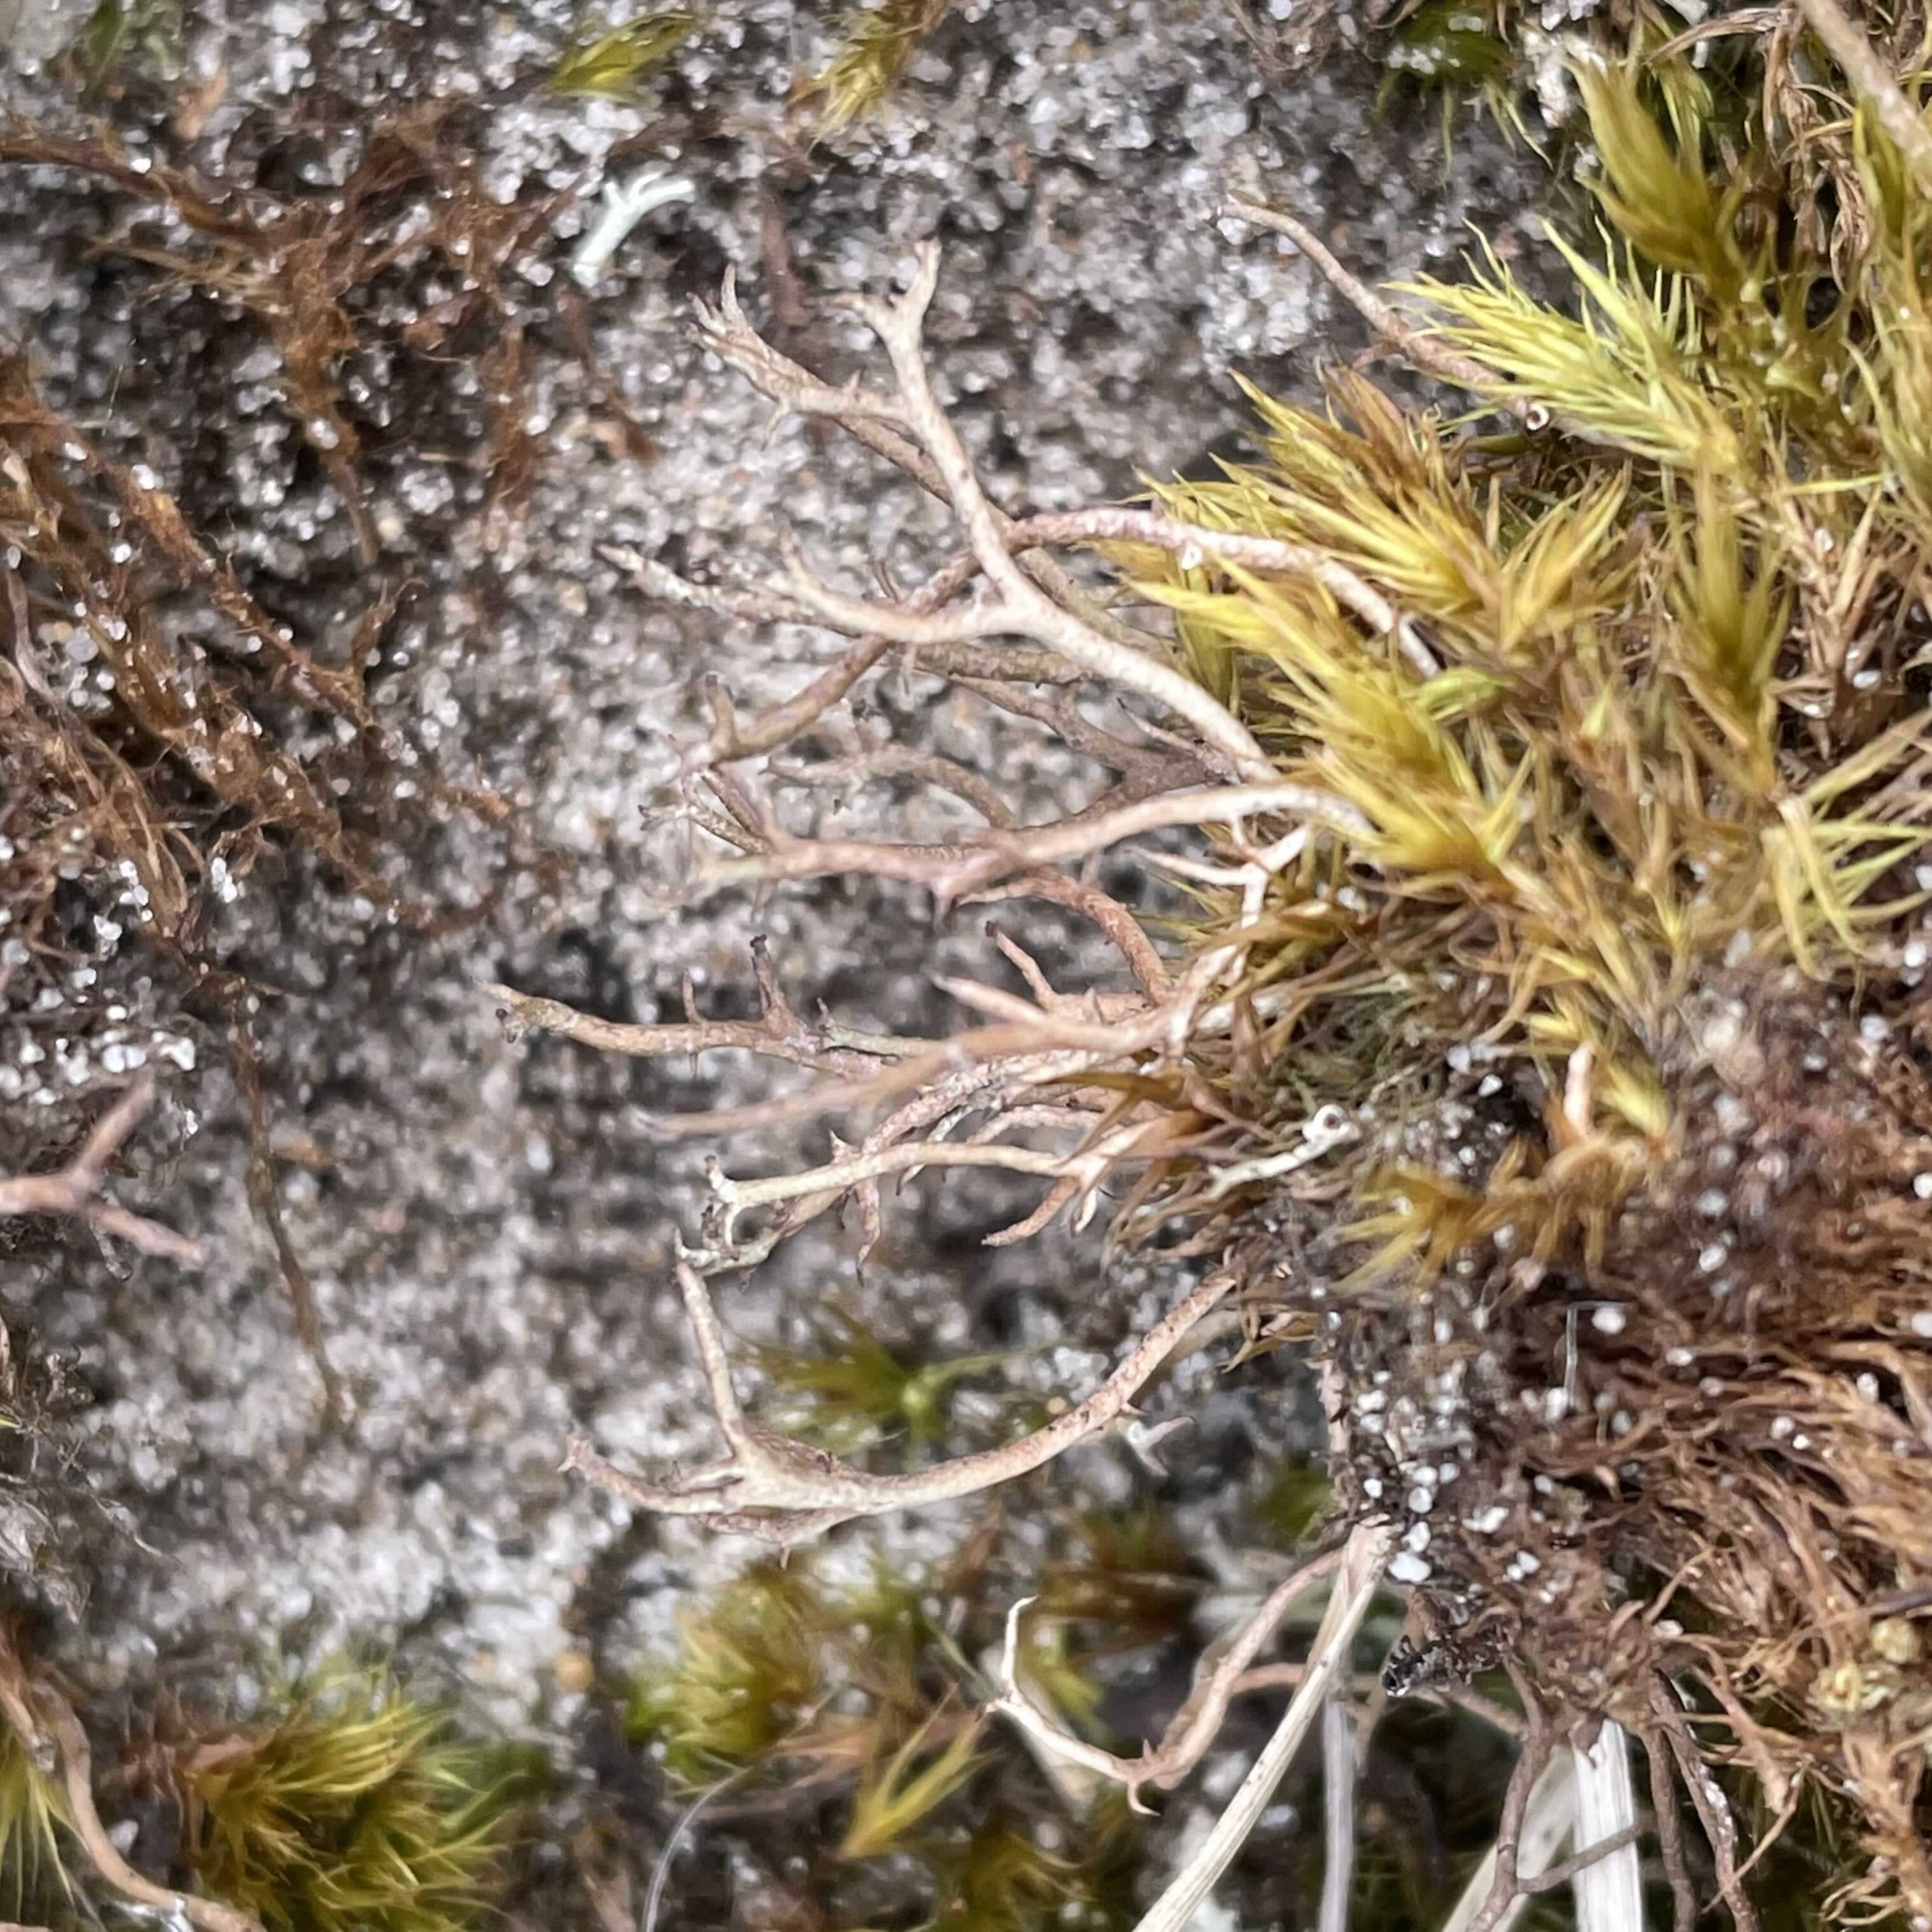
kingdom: Fungi
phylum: Ascomycota
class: Lecanoromycetes
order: Lecanorales
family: Cladoniaceae
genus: Cladonia
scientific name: Cladonia furcata
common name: kløftet bægerlav
